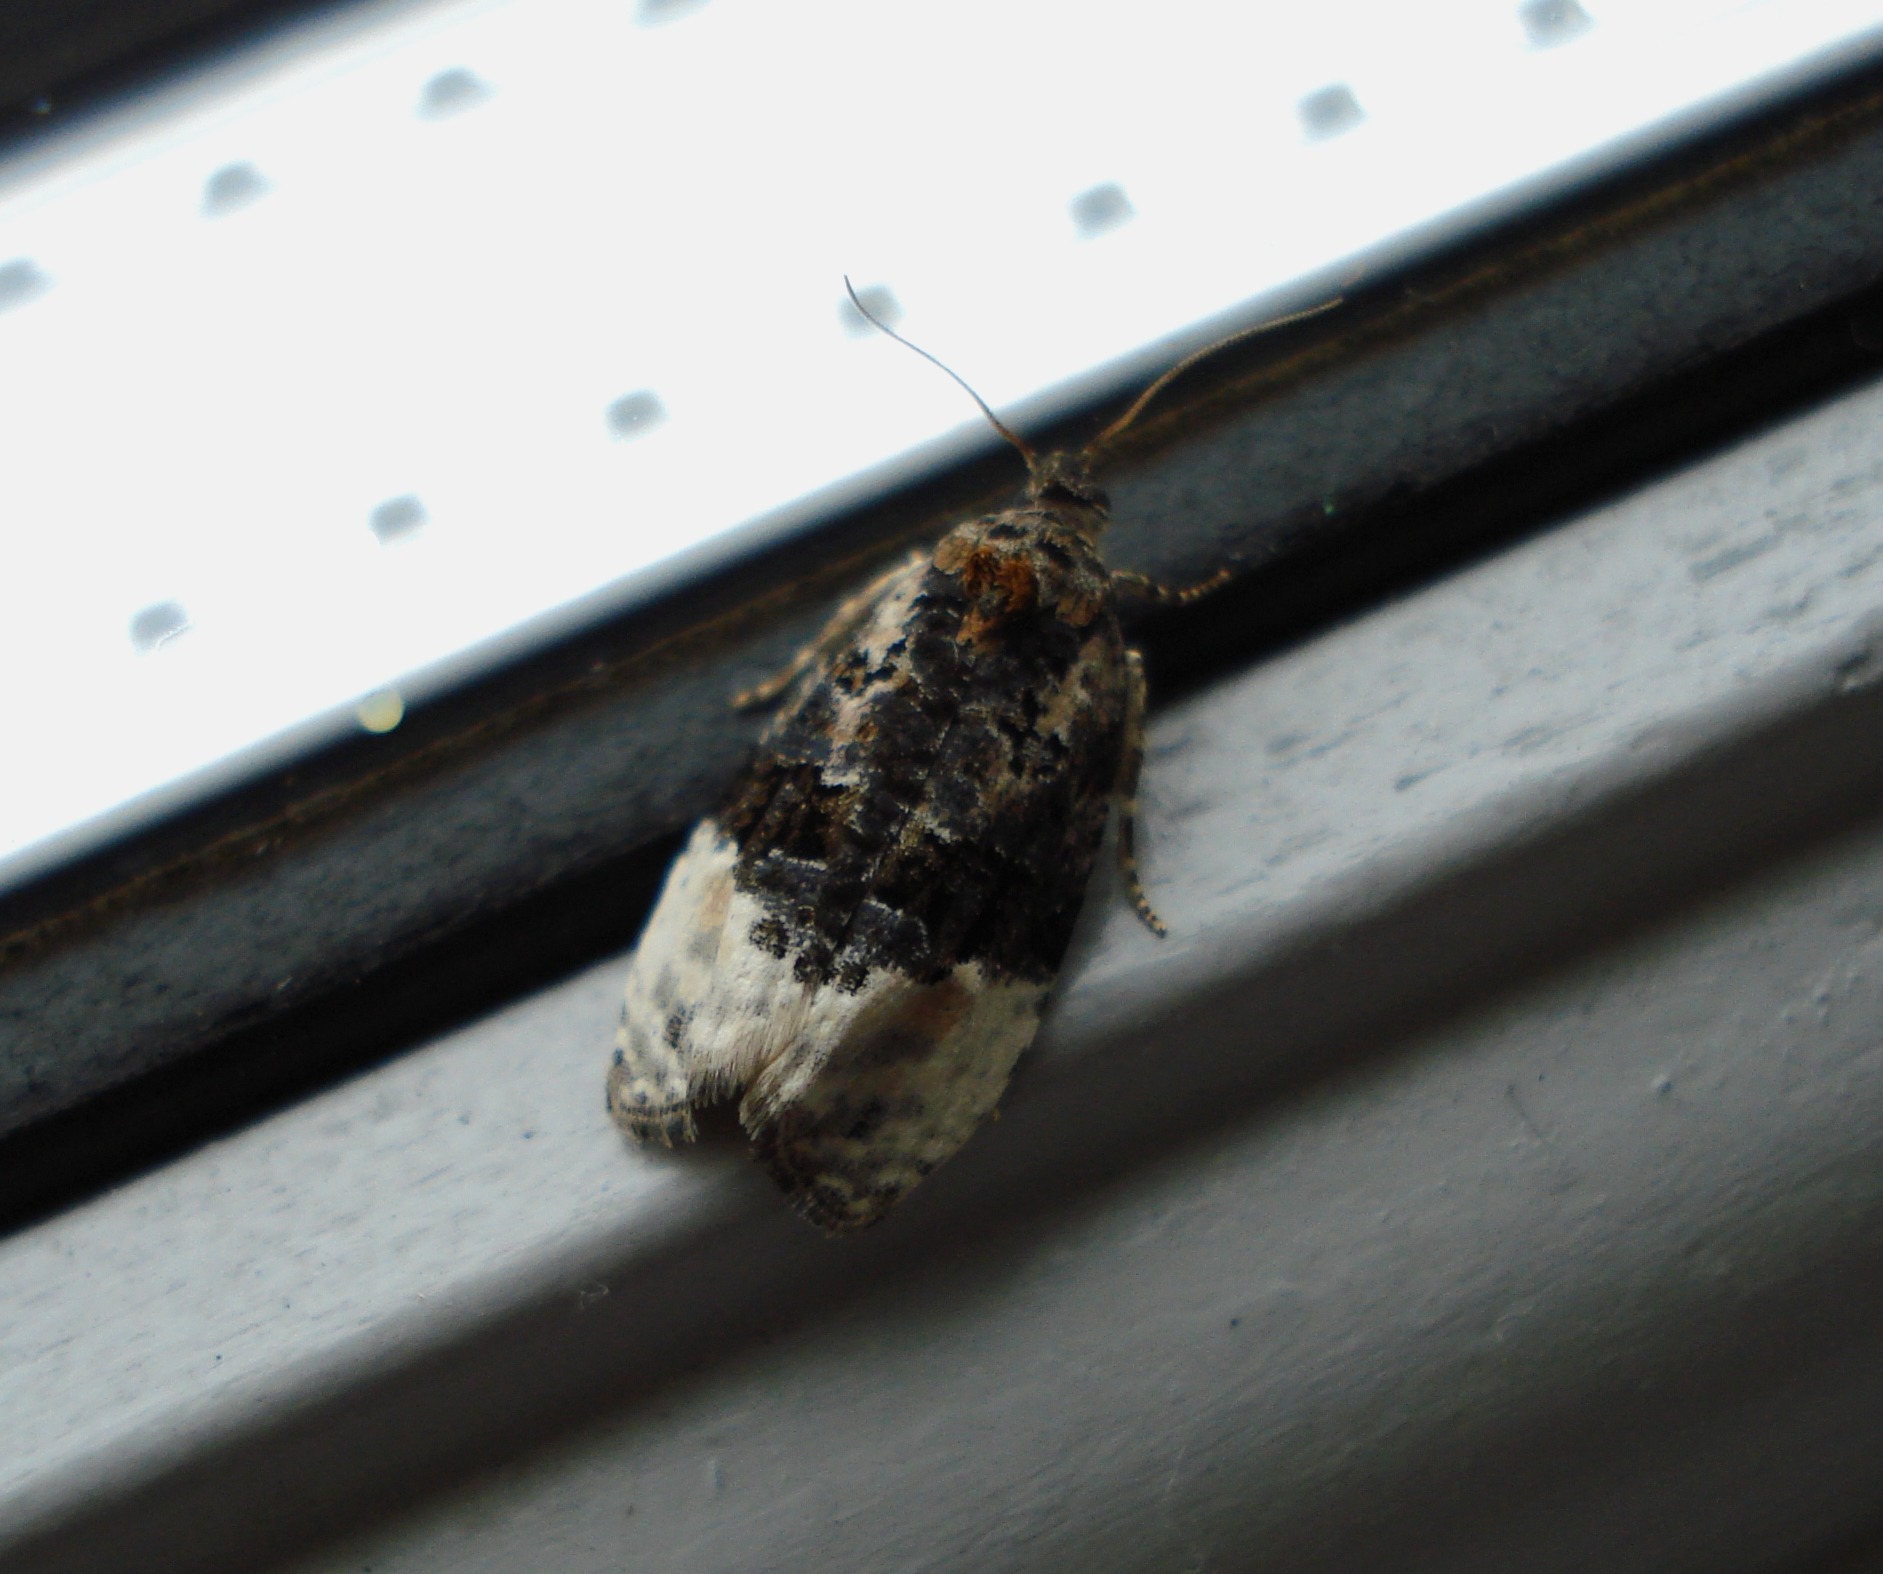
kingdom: Animalia
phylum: Arthropoda
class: Insecta
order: Lepidoptera
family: Tortricidae
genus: Apotomis
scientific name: Apotomis turbidana
